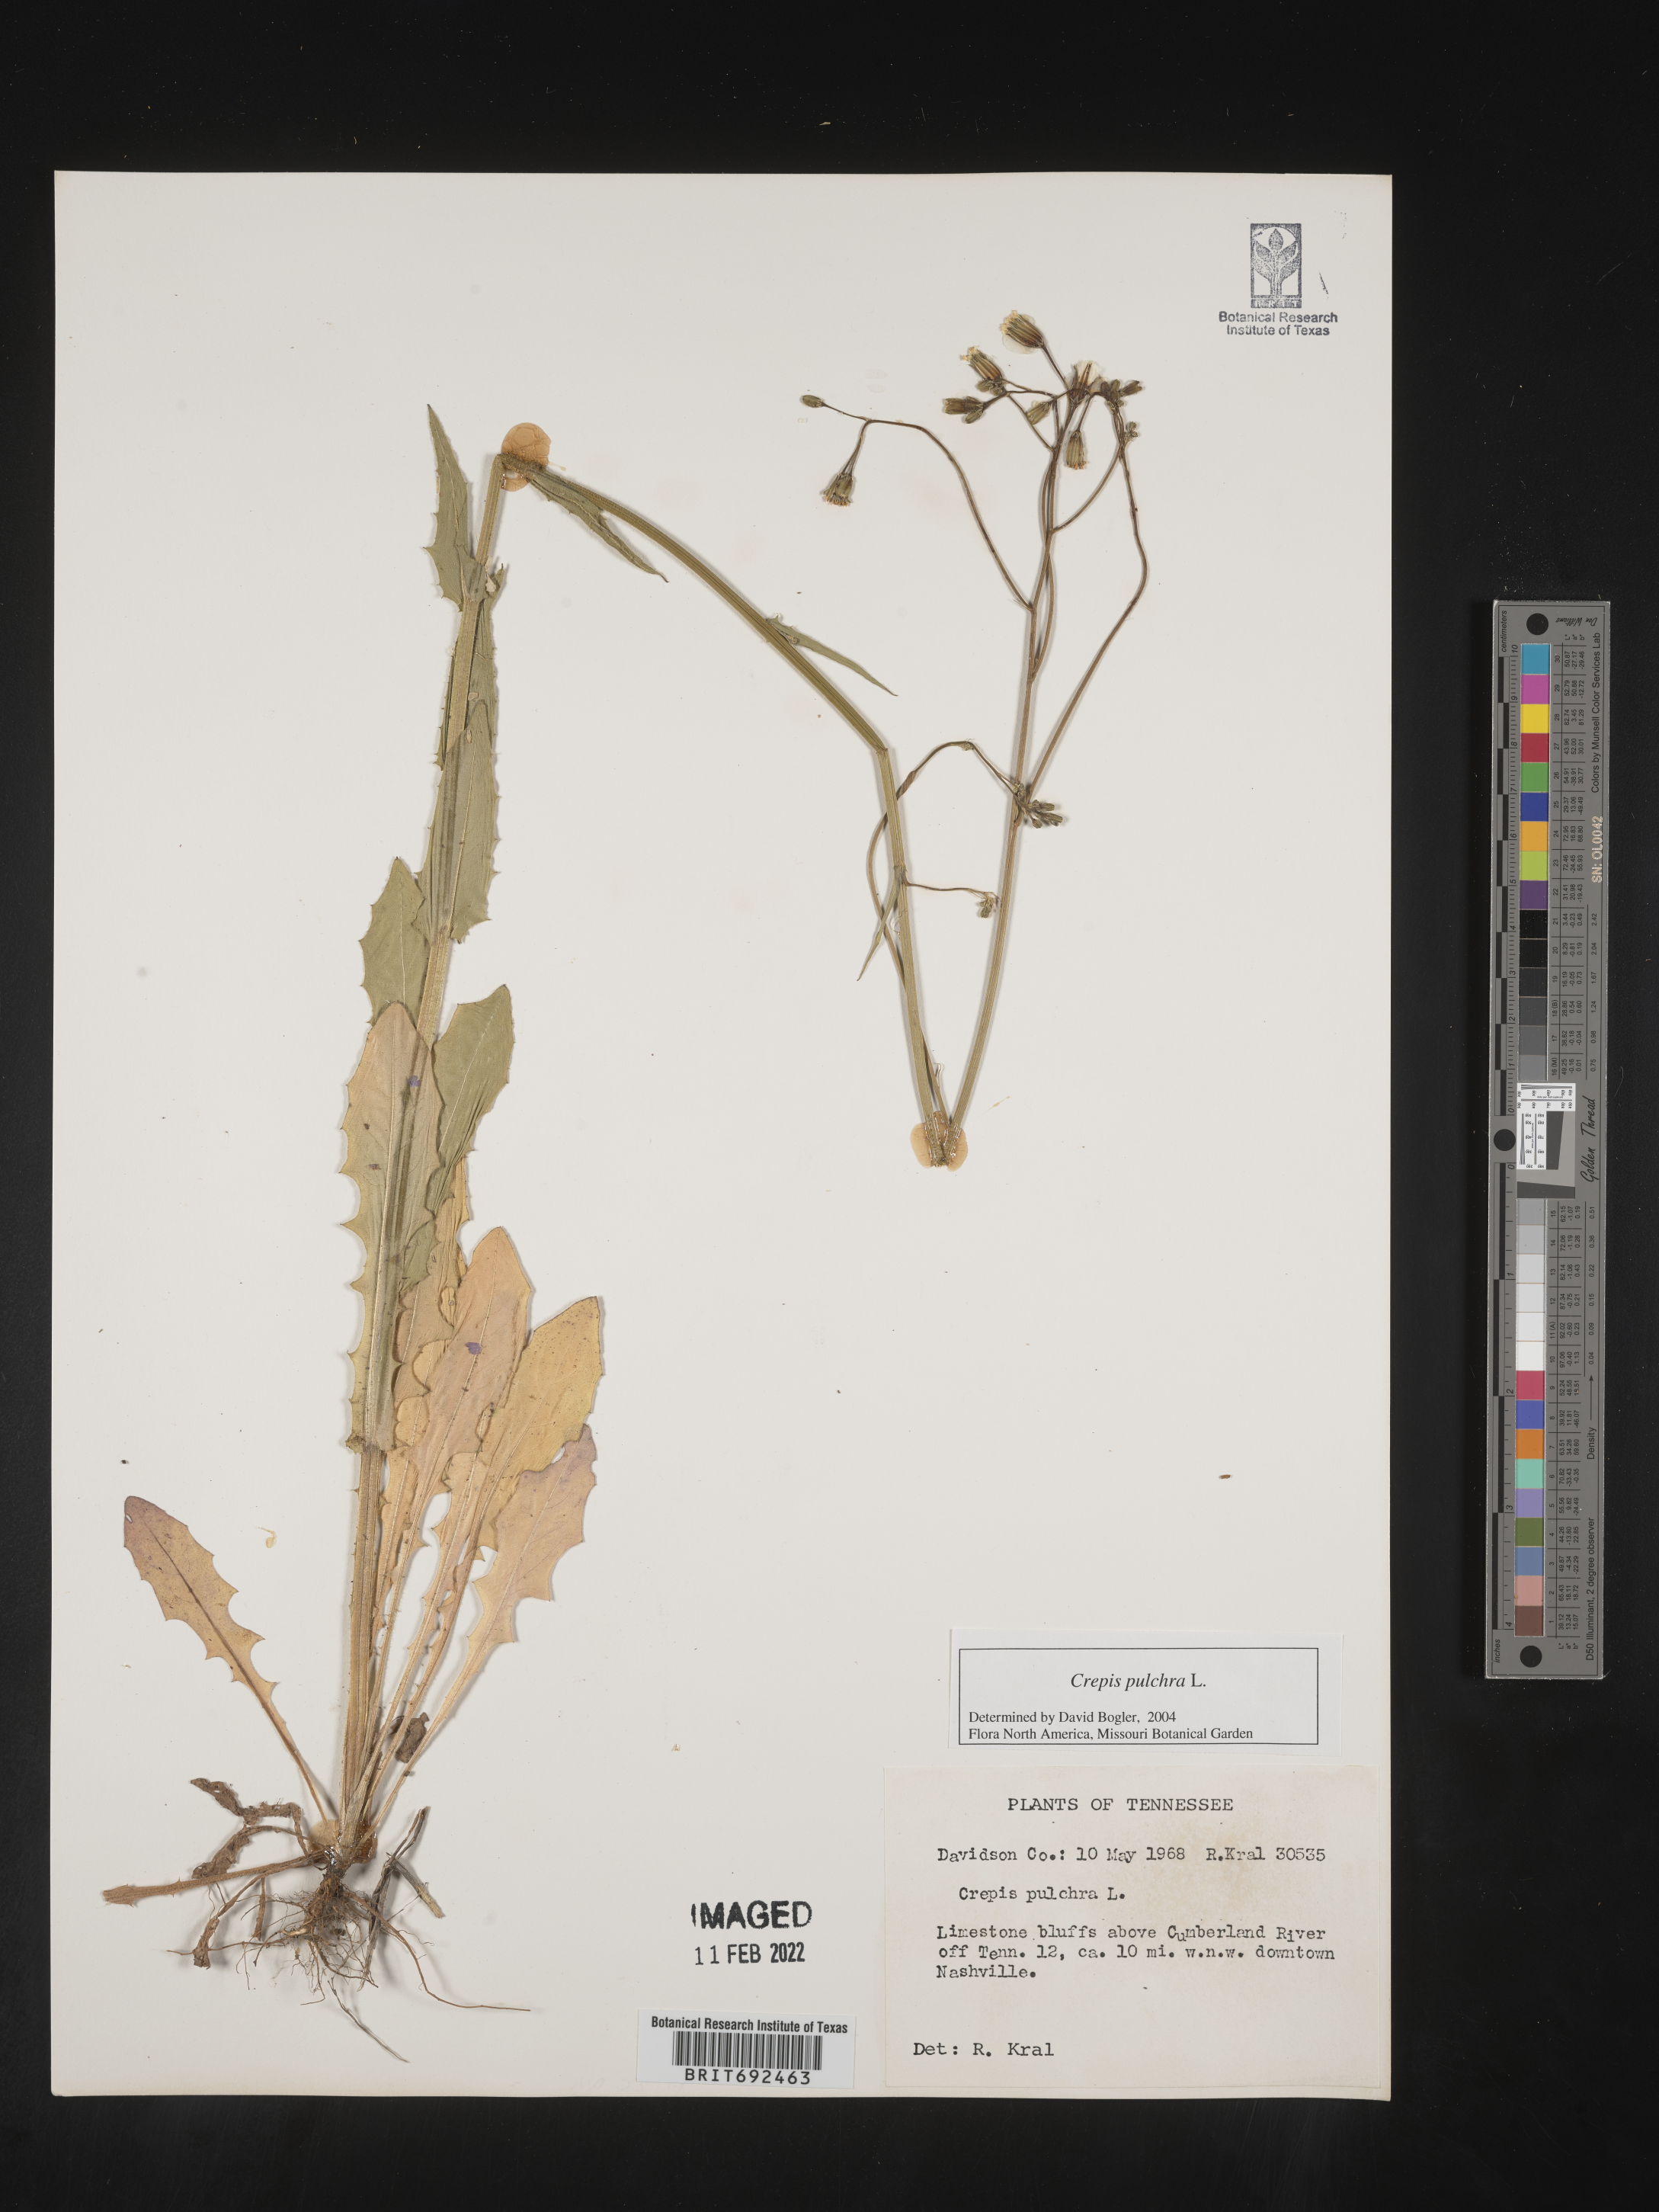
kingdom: Plantae
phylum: Tracheophyta
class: Magnoliopsida
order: Asterales
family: Asteraceae
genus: Crepis
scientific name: Crepis pulchra
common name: Hawk's-beard
